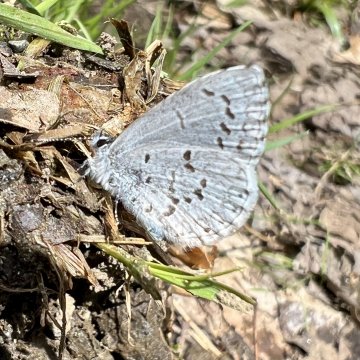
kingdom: Animalia
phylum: Arthropoda
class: Insecta
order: Lepidoptera
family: Lycaenidae
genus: Celastrina
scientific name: Celastrina lucia
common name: Northern Spring Azure
